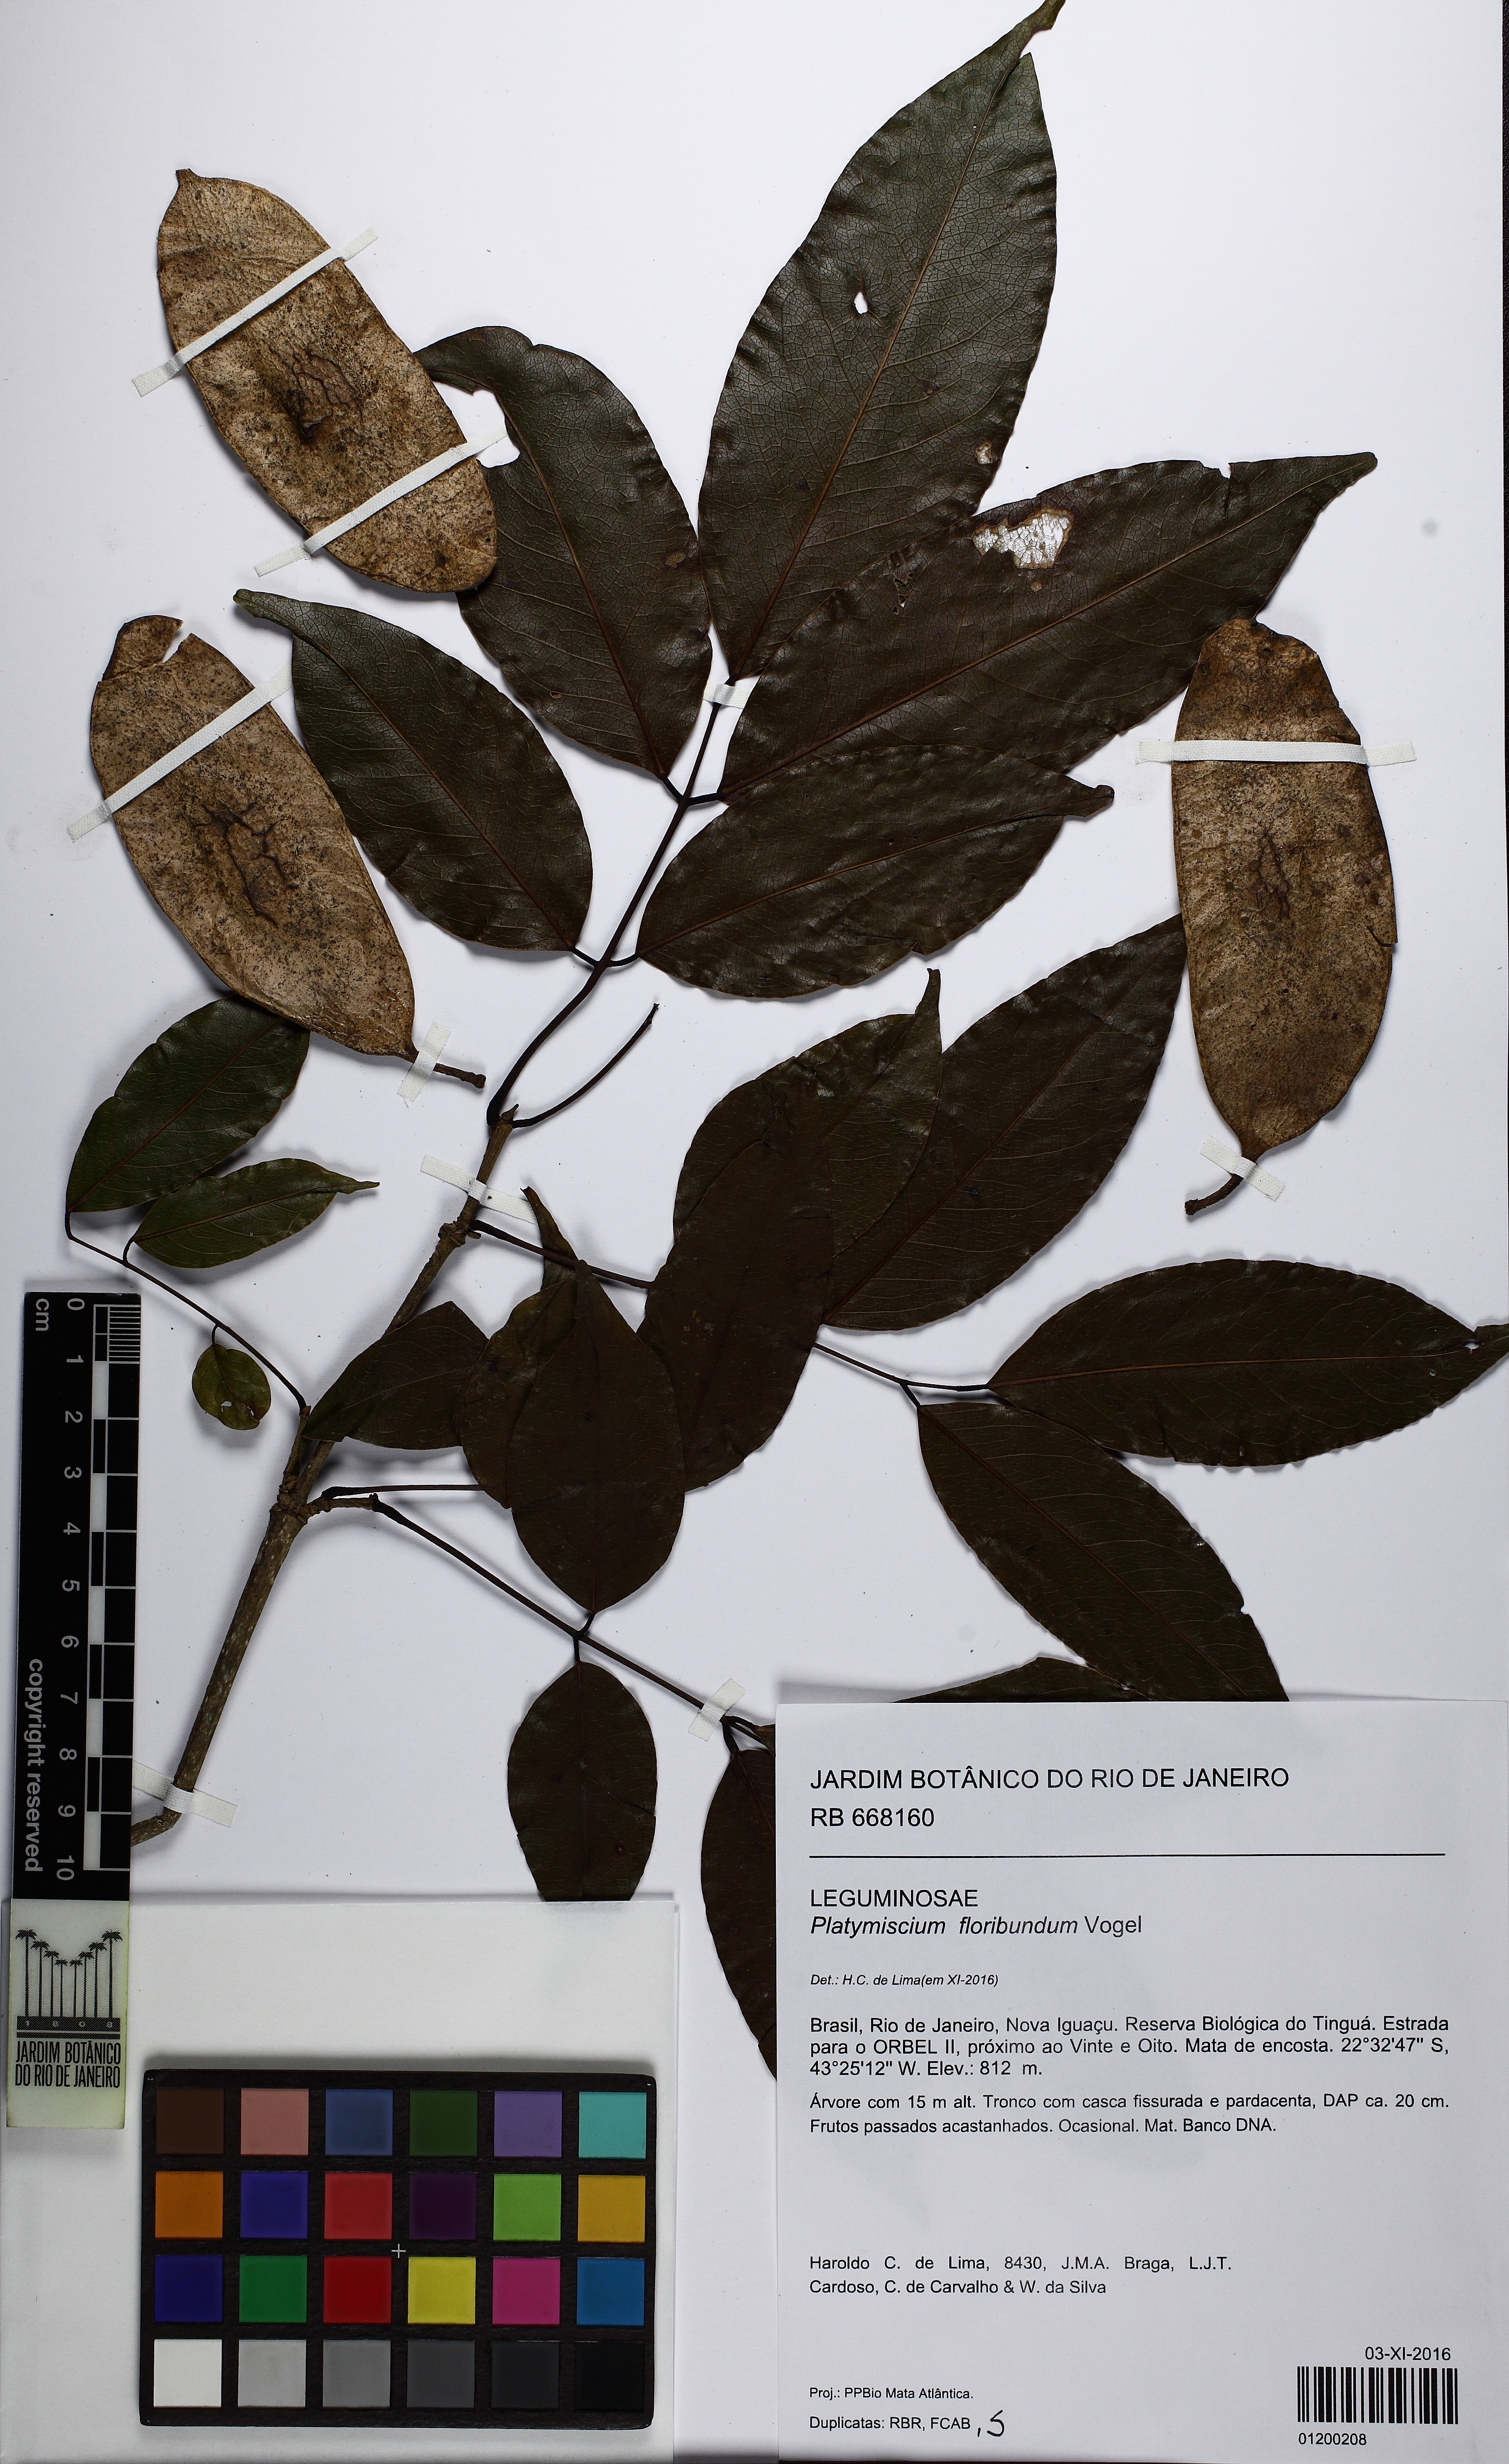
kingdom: Plantae
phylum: Tracheophyta
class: Magnoliopsida
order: Fabales
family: Fabaceae
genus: Platymiscium
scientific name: Platymiscium floribundum
